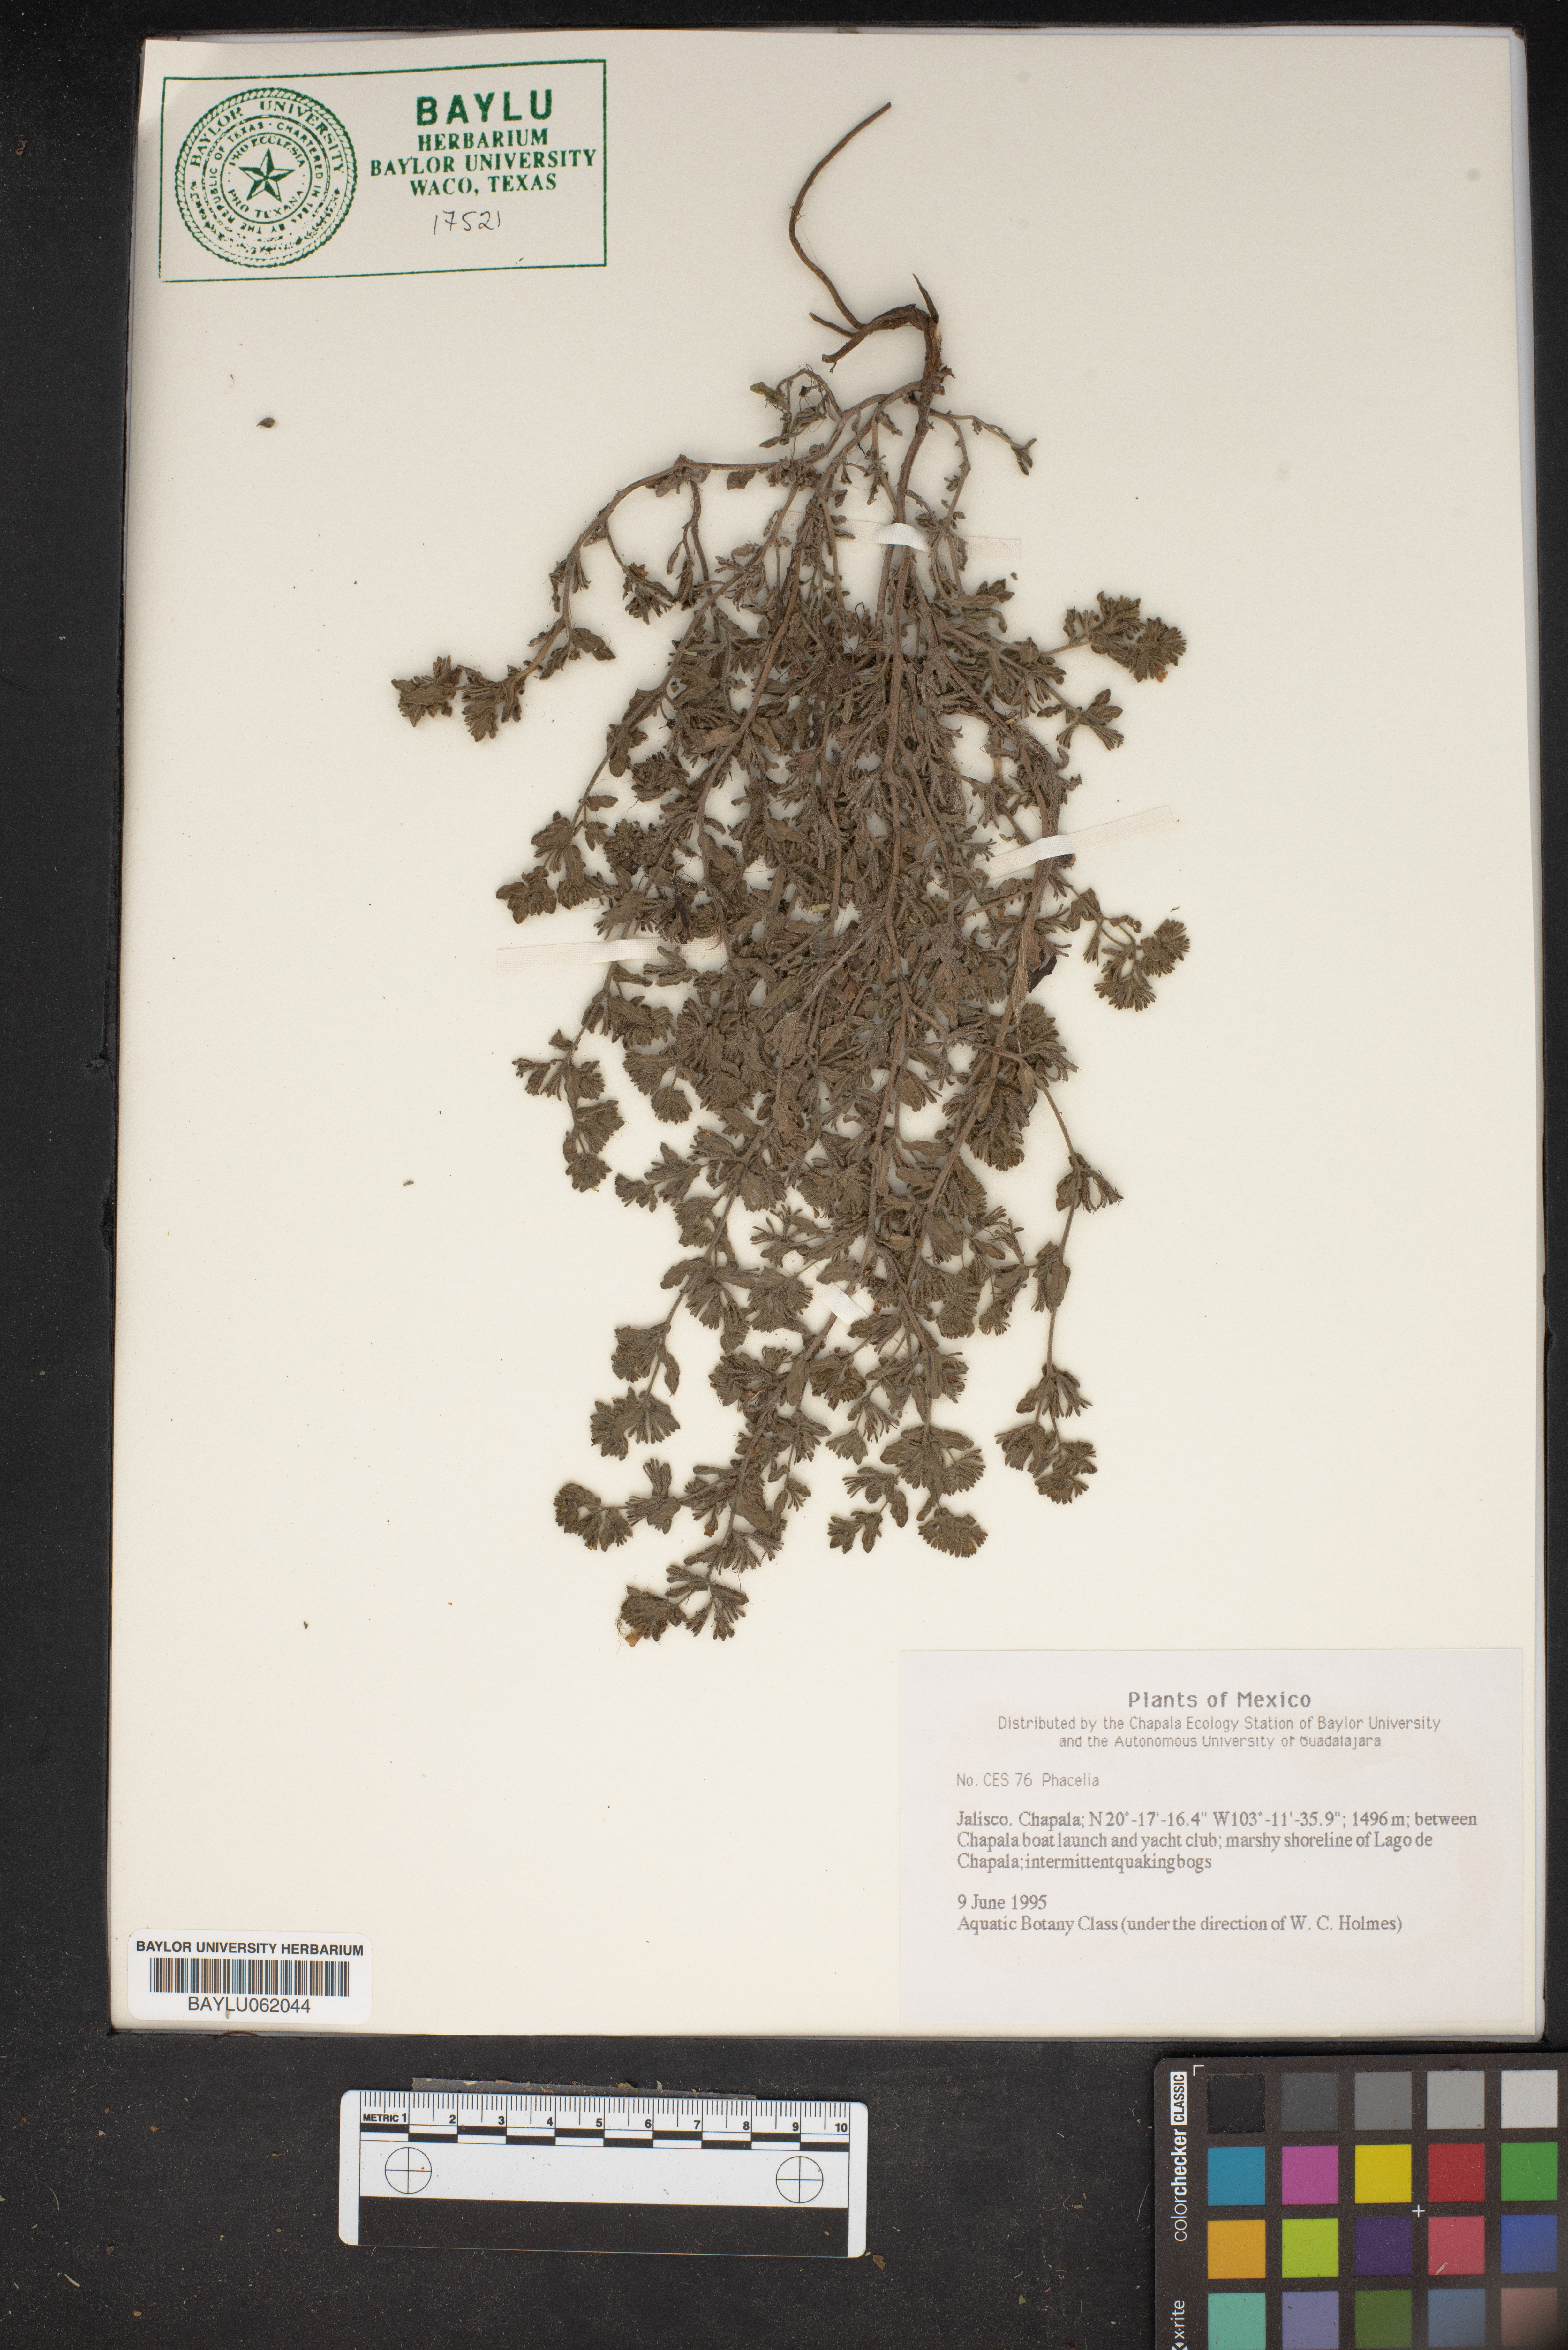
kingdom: Plantae
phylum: Tracheophyta
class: Magnoliopsida
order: Boraginales
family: Hydrophyllaceae
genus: Phacelia
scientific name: Phacelia
